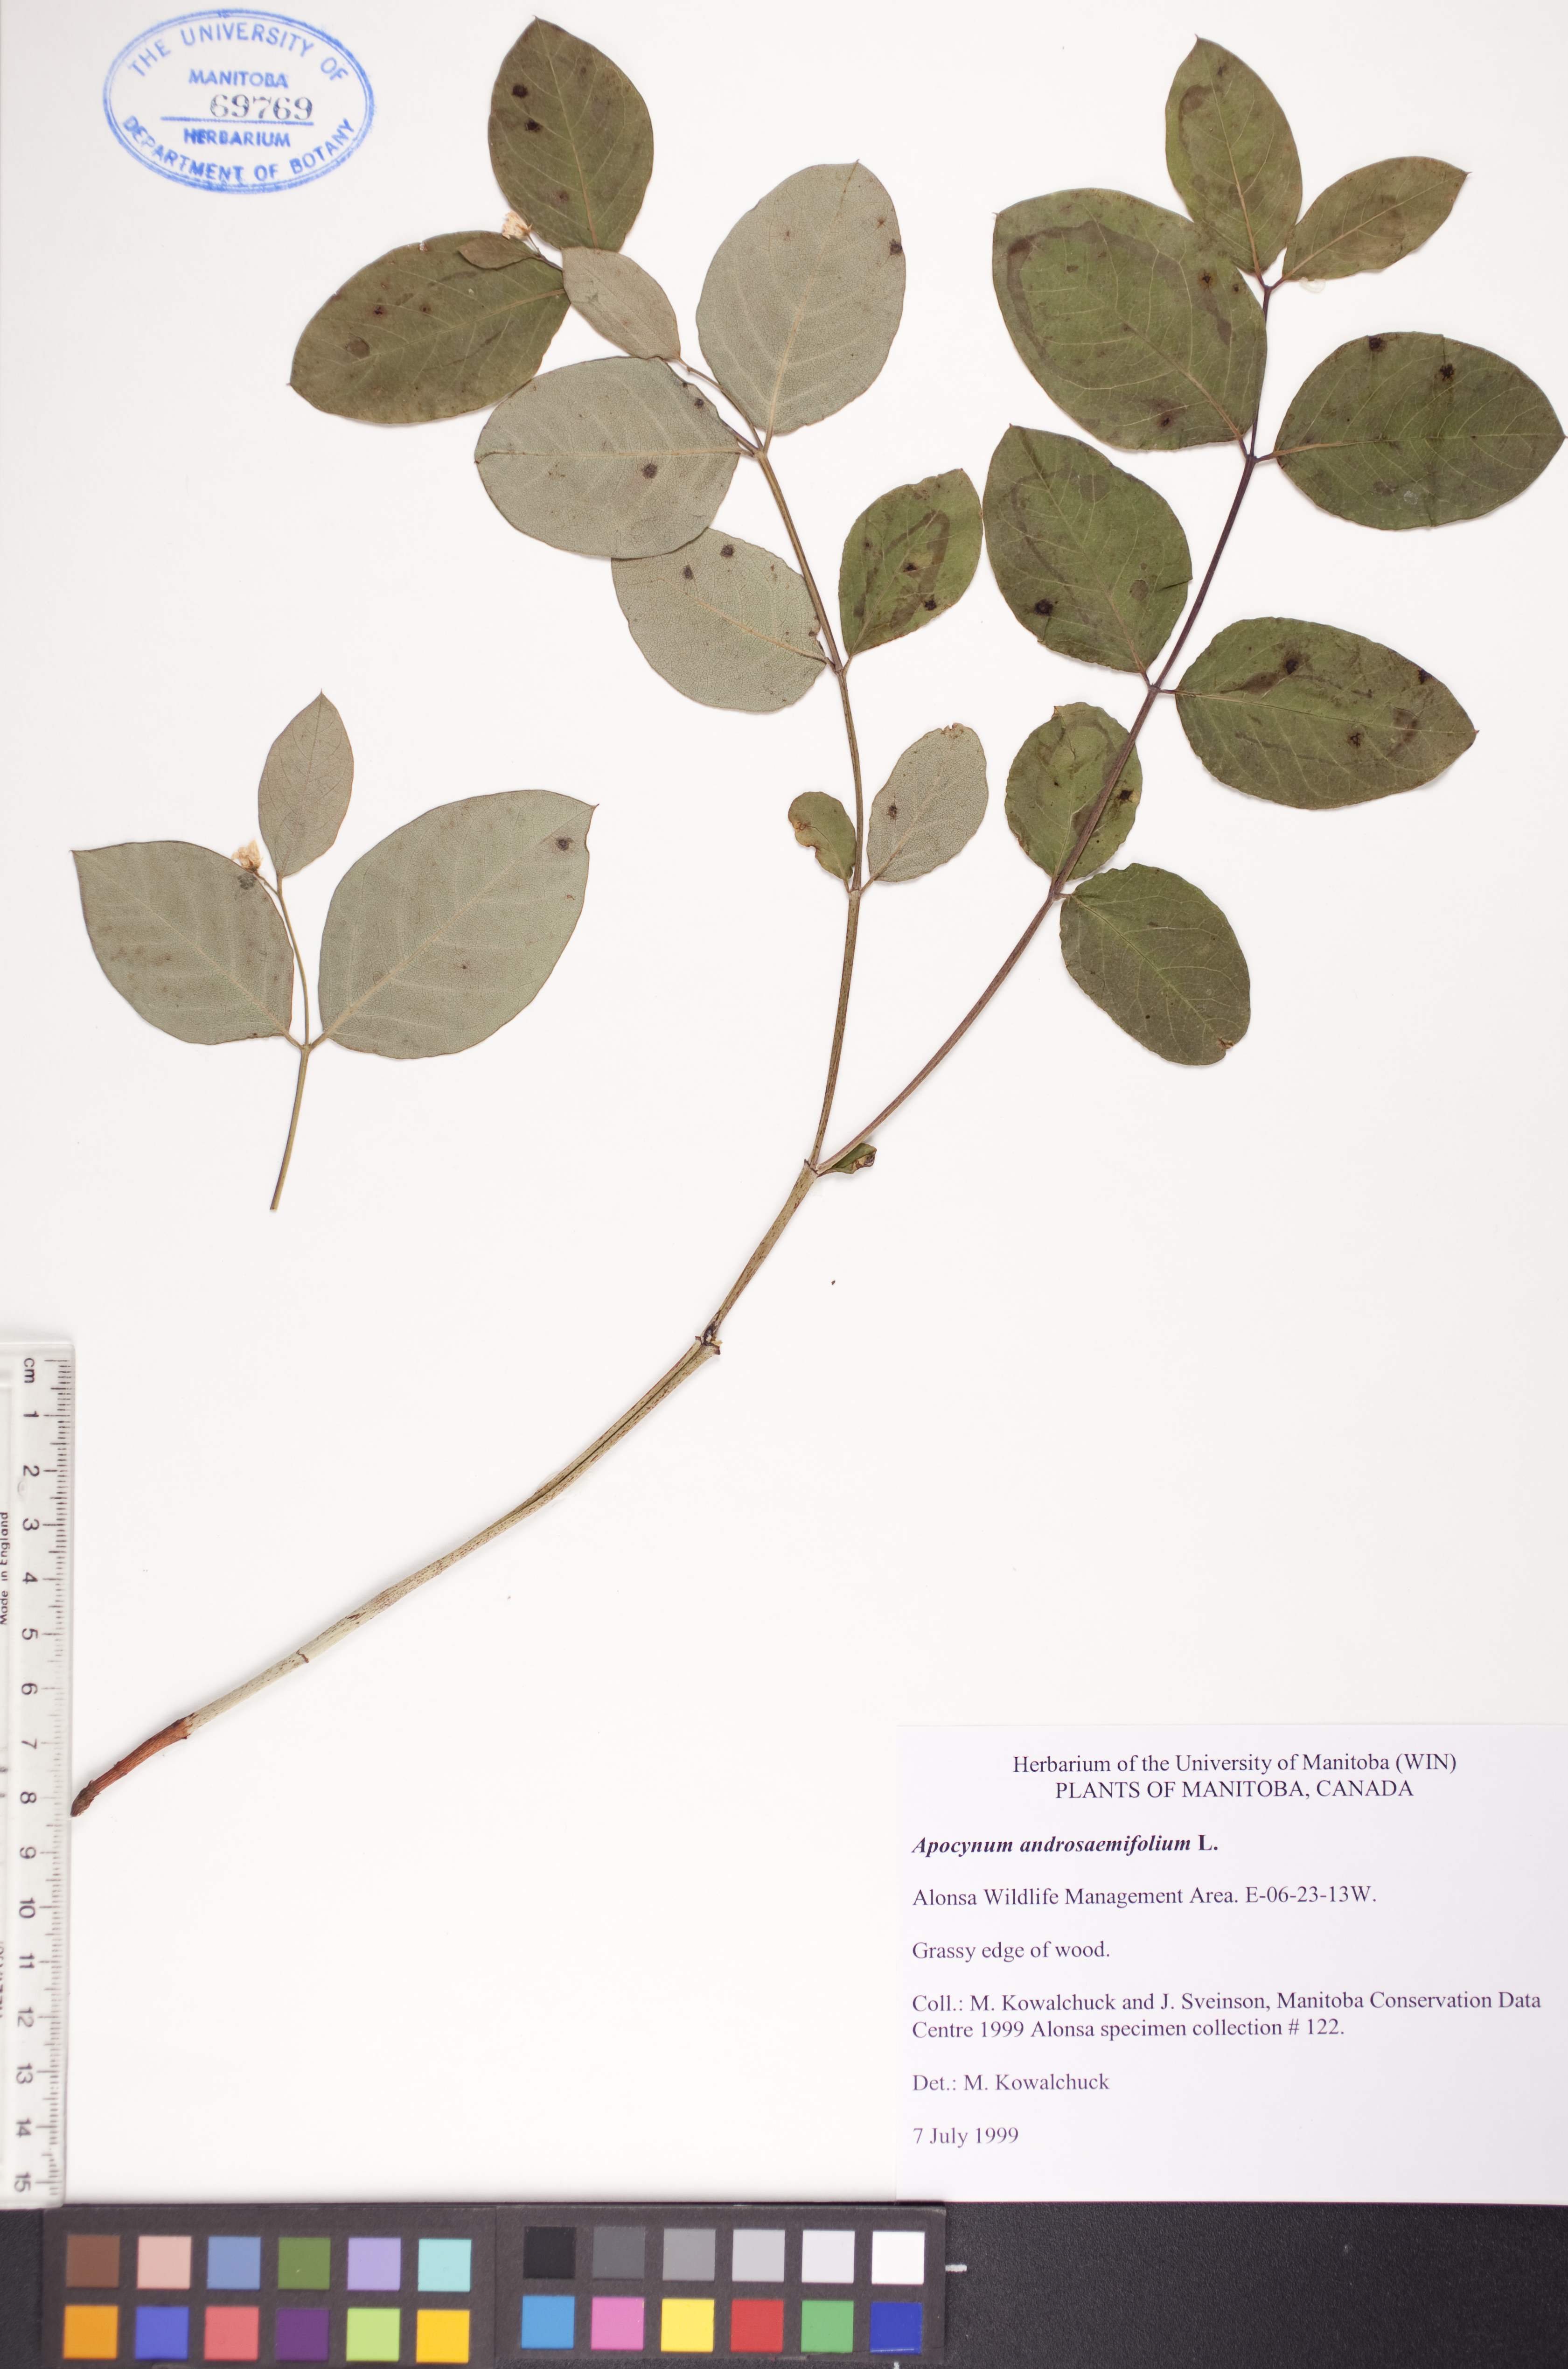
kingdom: Plantae
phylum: Tracheophyta
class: Magnoliopsida
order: Gentianales
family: Apocynaceae
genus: Apocynum
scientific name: Apocynum androsaemifolium
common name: Spreading dogbane
